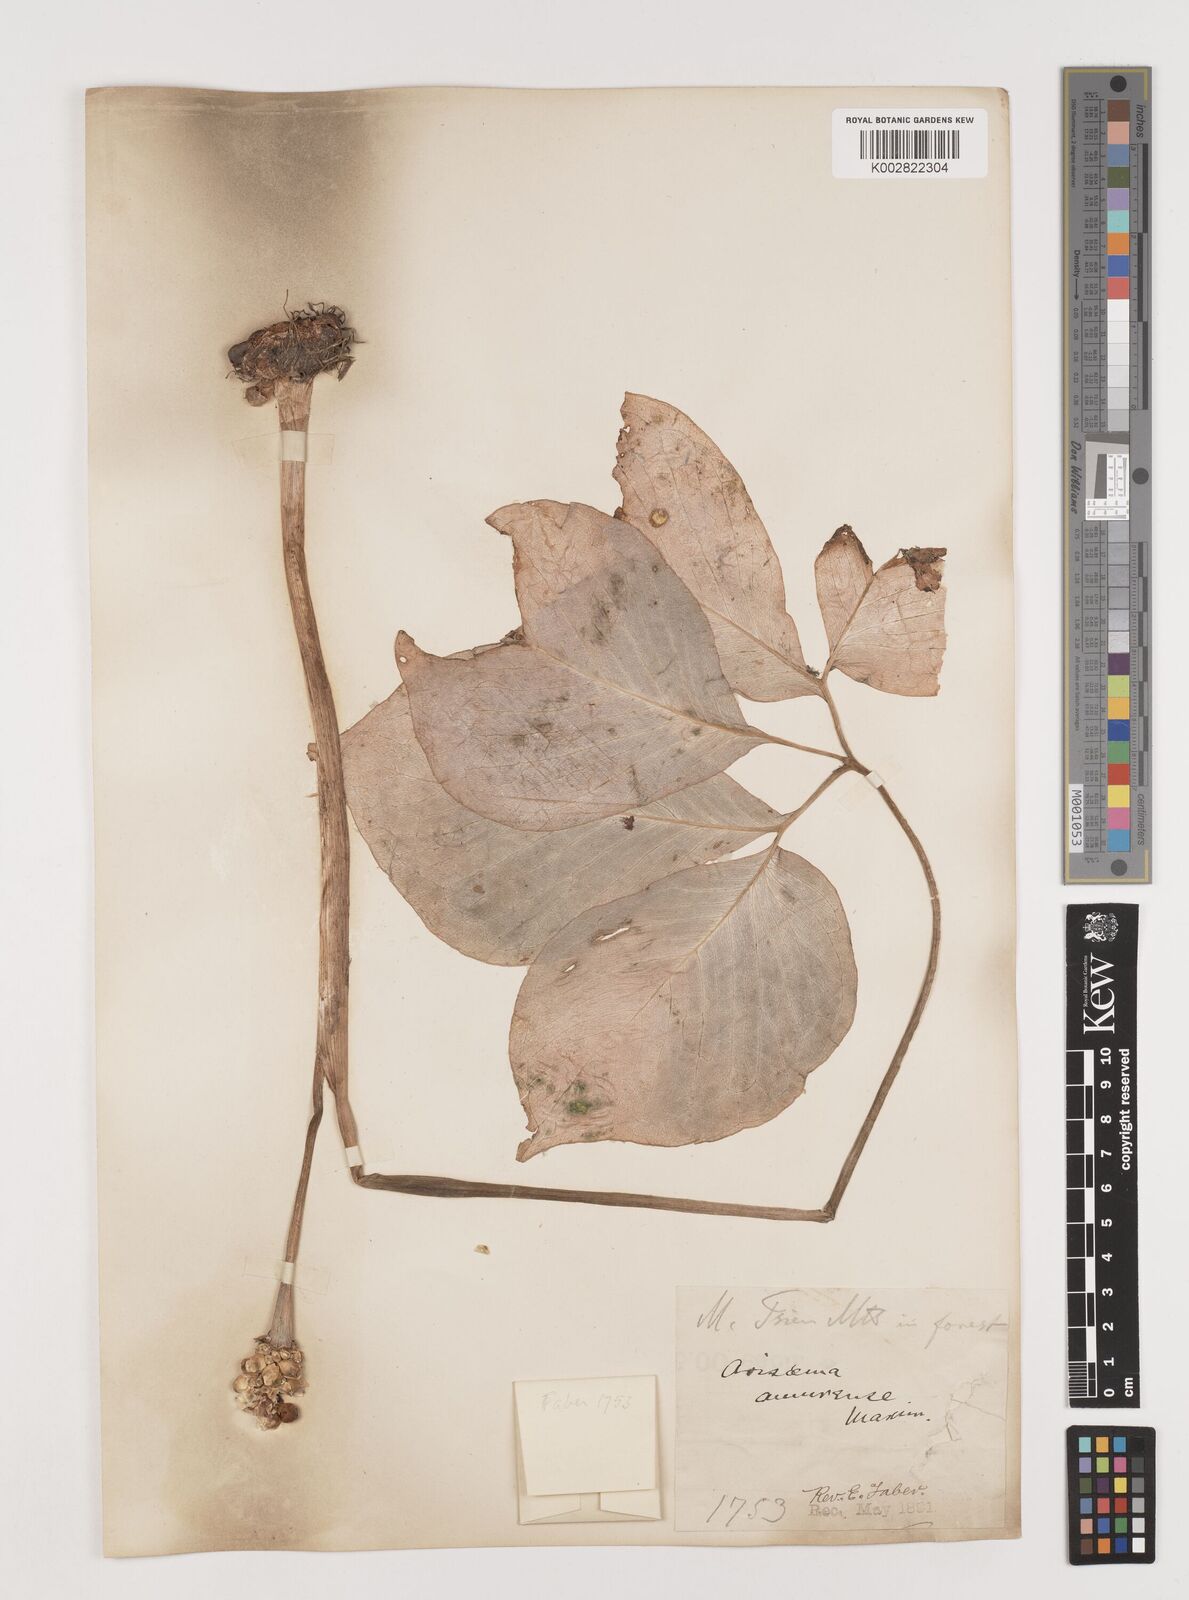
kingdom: Plantae
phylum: Tracheophyta
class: Liliopsida
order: Alismatales
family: Araceae
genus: Arisaema
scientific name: Arisaema amurense
